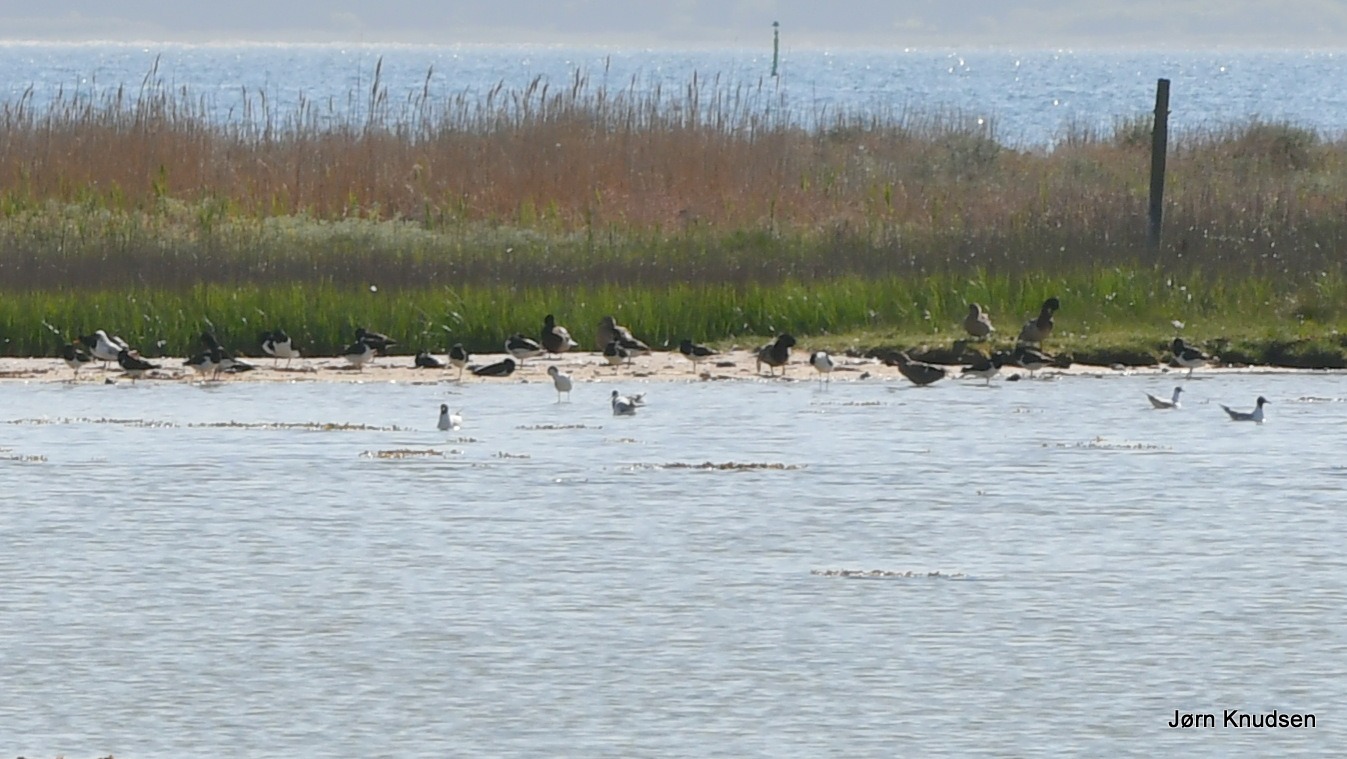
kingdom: Animalia
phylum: Chordata
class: Aves
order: Charadriiformes
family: Haematopodidae
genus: Haematopus
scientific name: Haematopus ostralegus
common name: Strandskade
